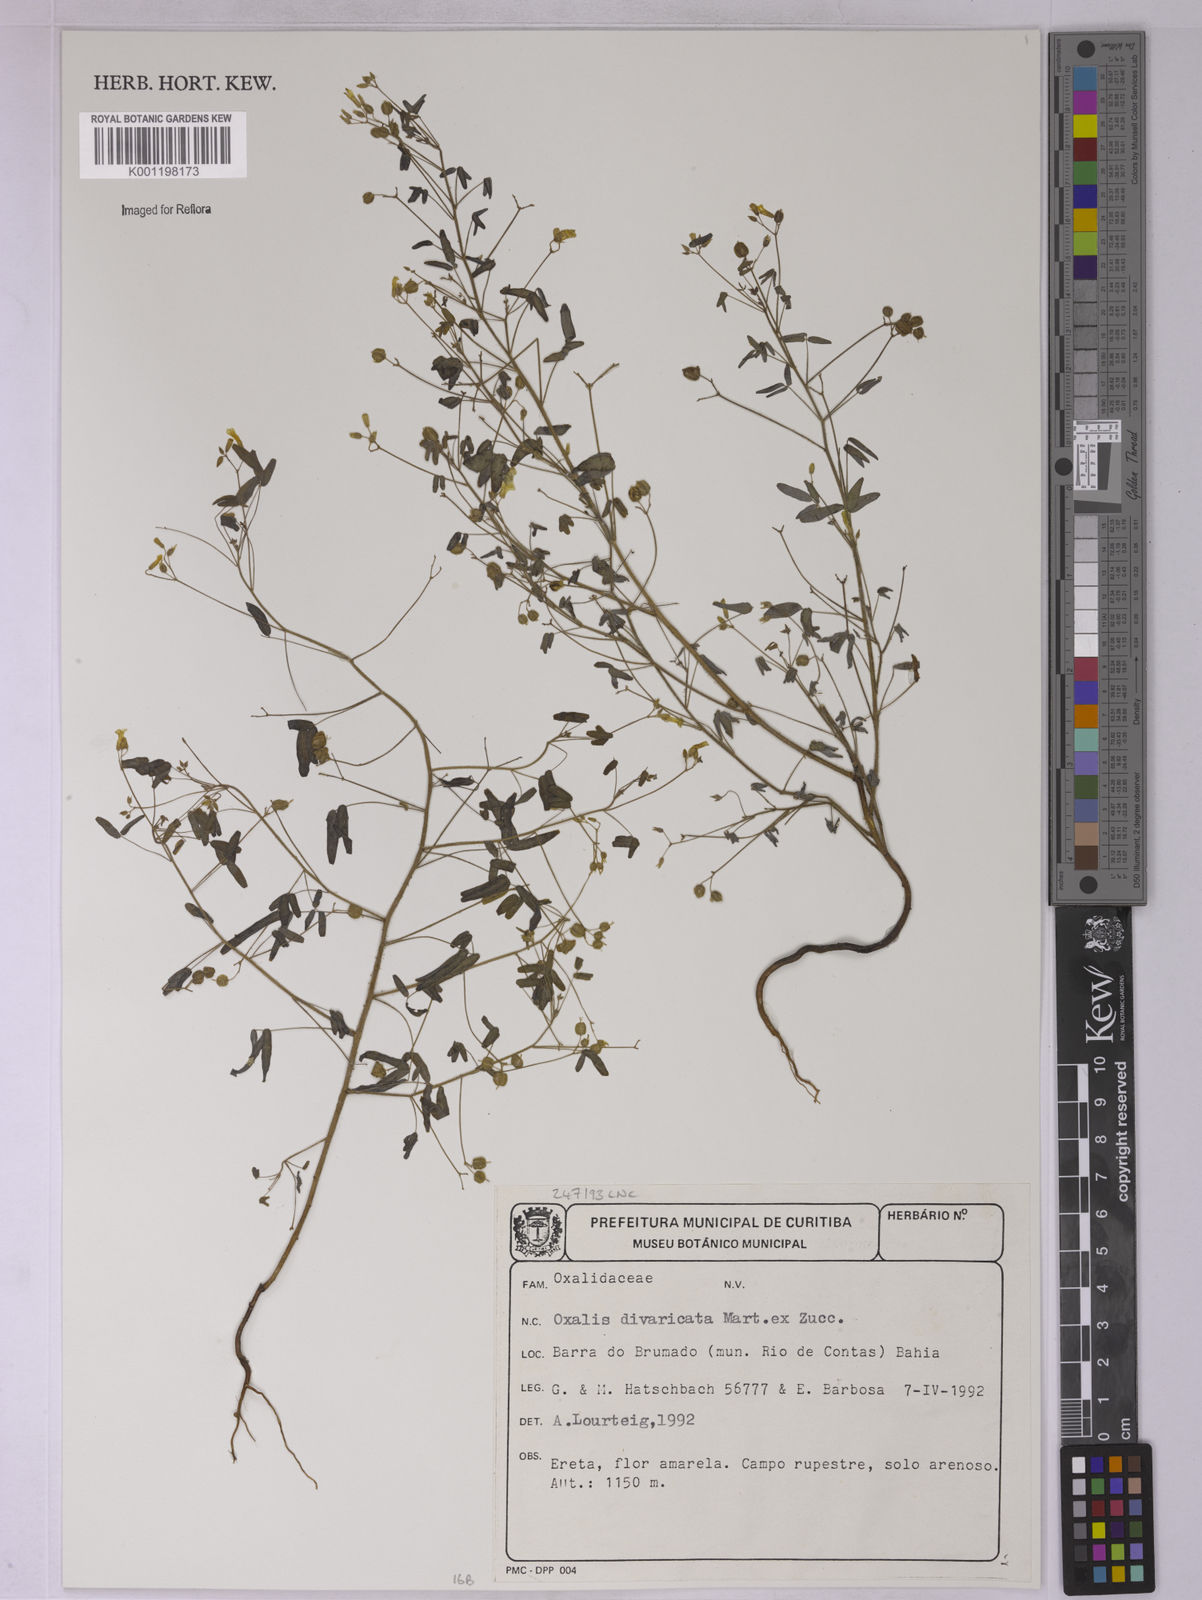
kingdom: Plantae
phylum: Tracheophyta
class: Magnoliopsida
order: Oxalidales
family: Oxalidaceae
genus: Oxalis
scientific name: Oxalis divaricata
